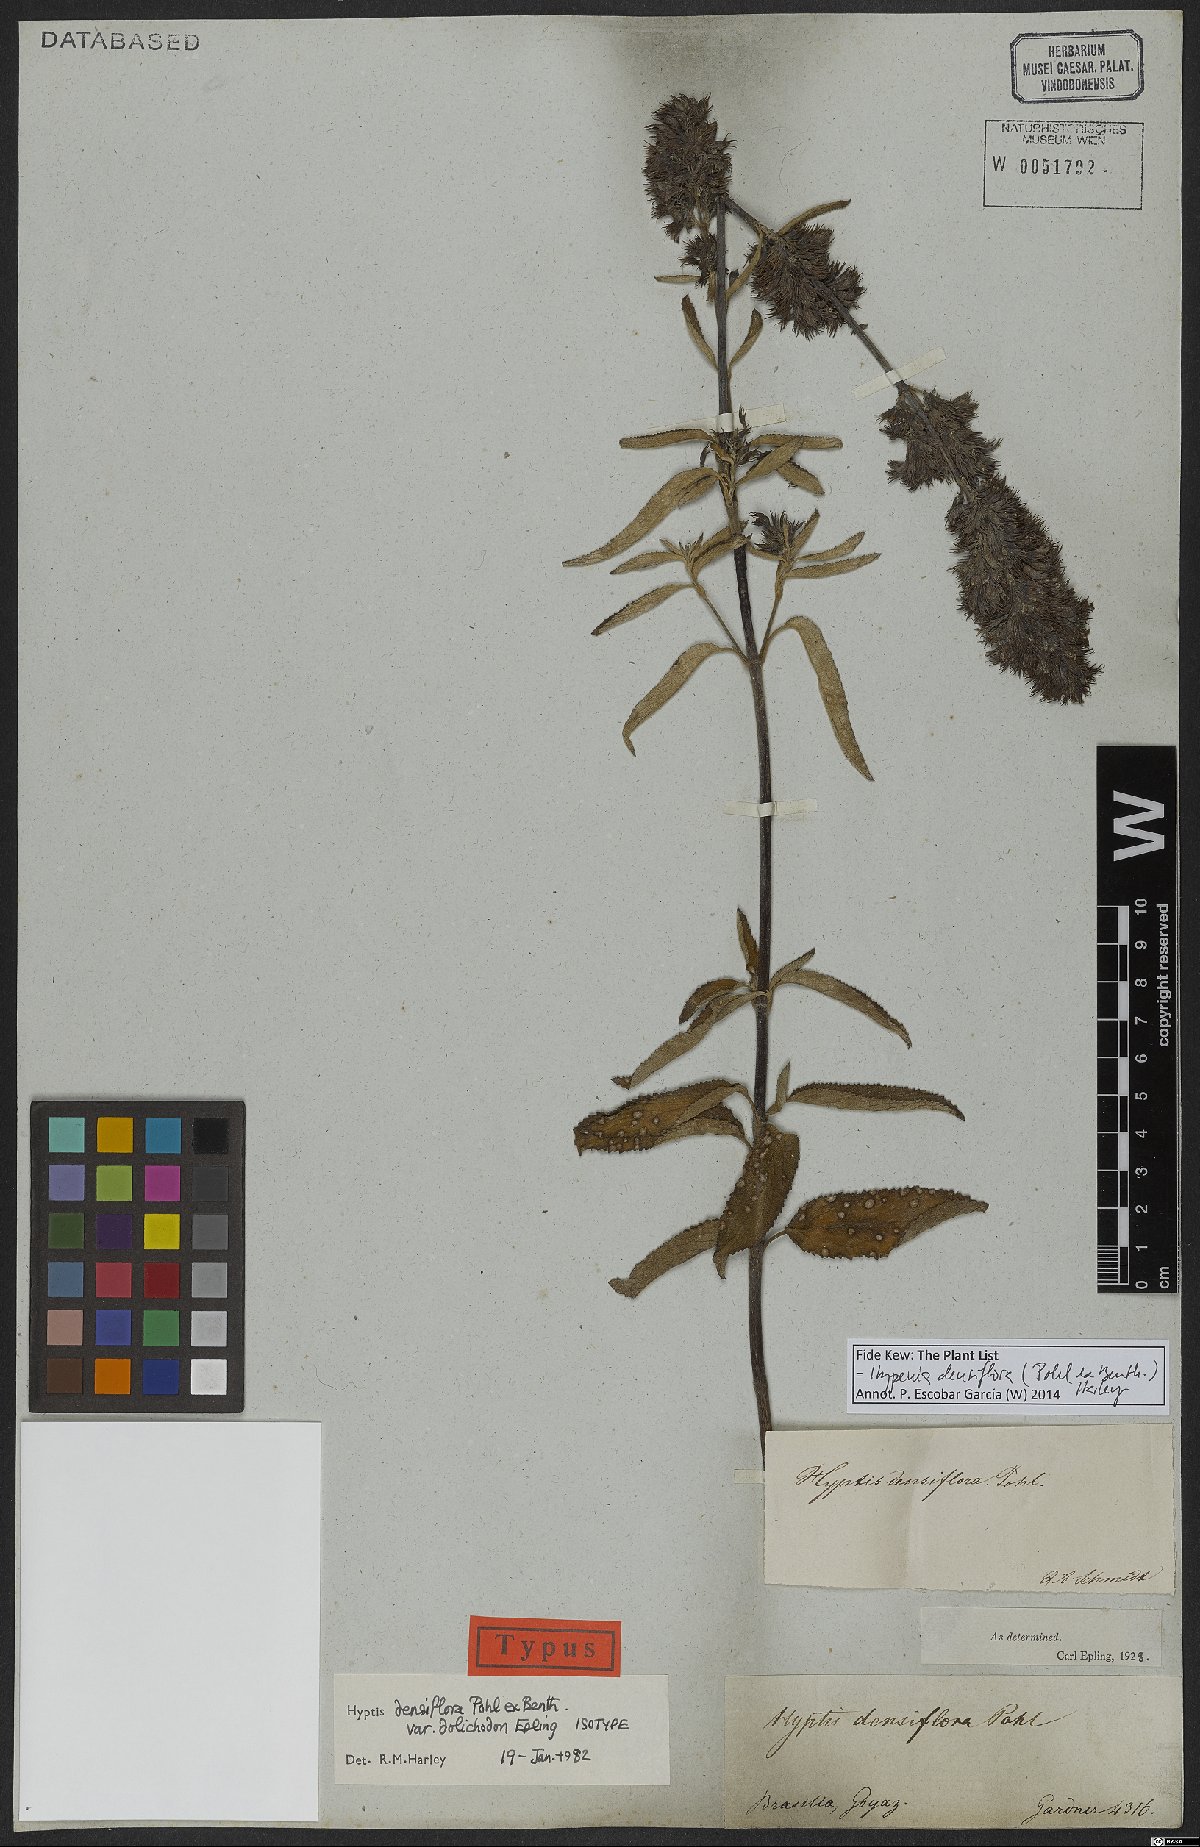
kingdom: Plantae
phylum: Tracheophyta
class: Magnoliopsida
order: Lamiales
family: Lamiaceae
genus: Hypenia
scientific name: Hypenia densiflora
